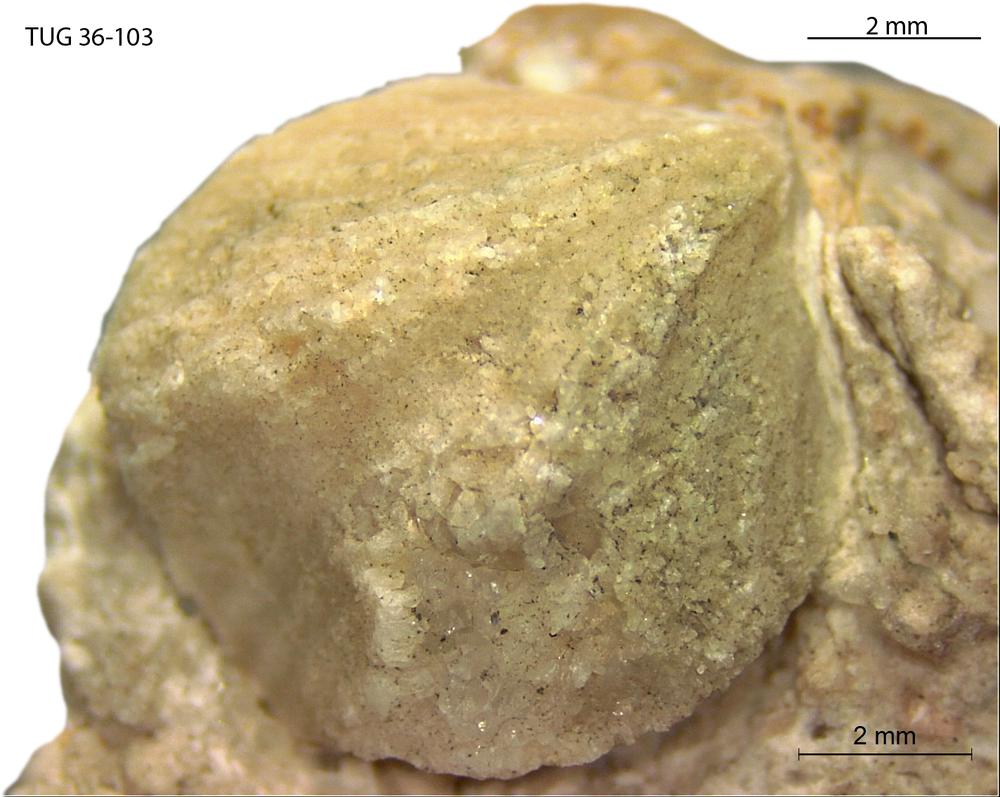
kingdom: Animalia
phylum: Brachiopoda
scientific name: Brachiopoda
